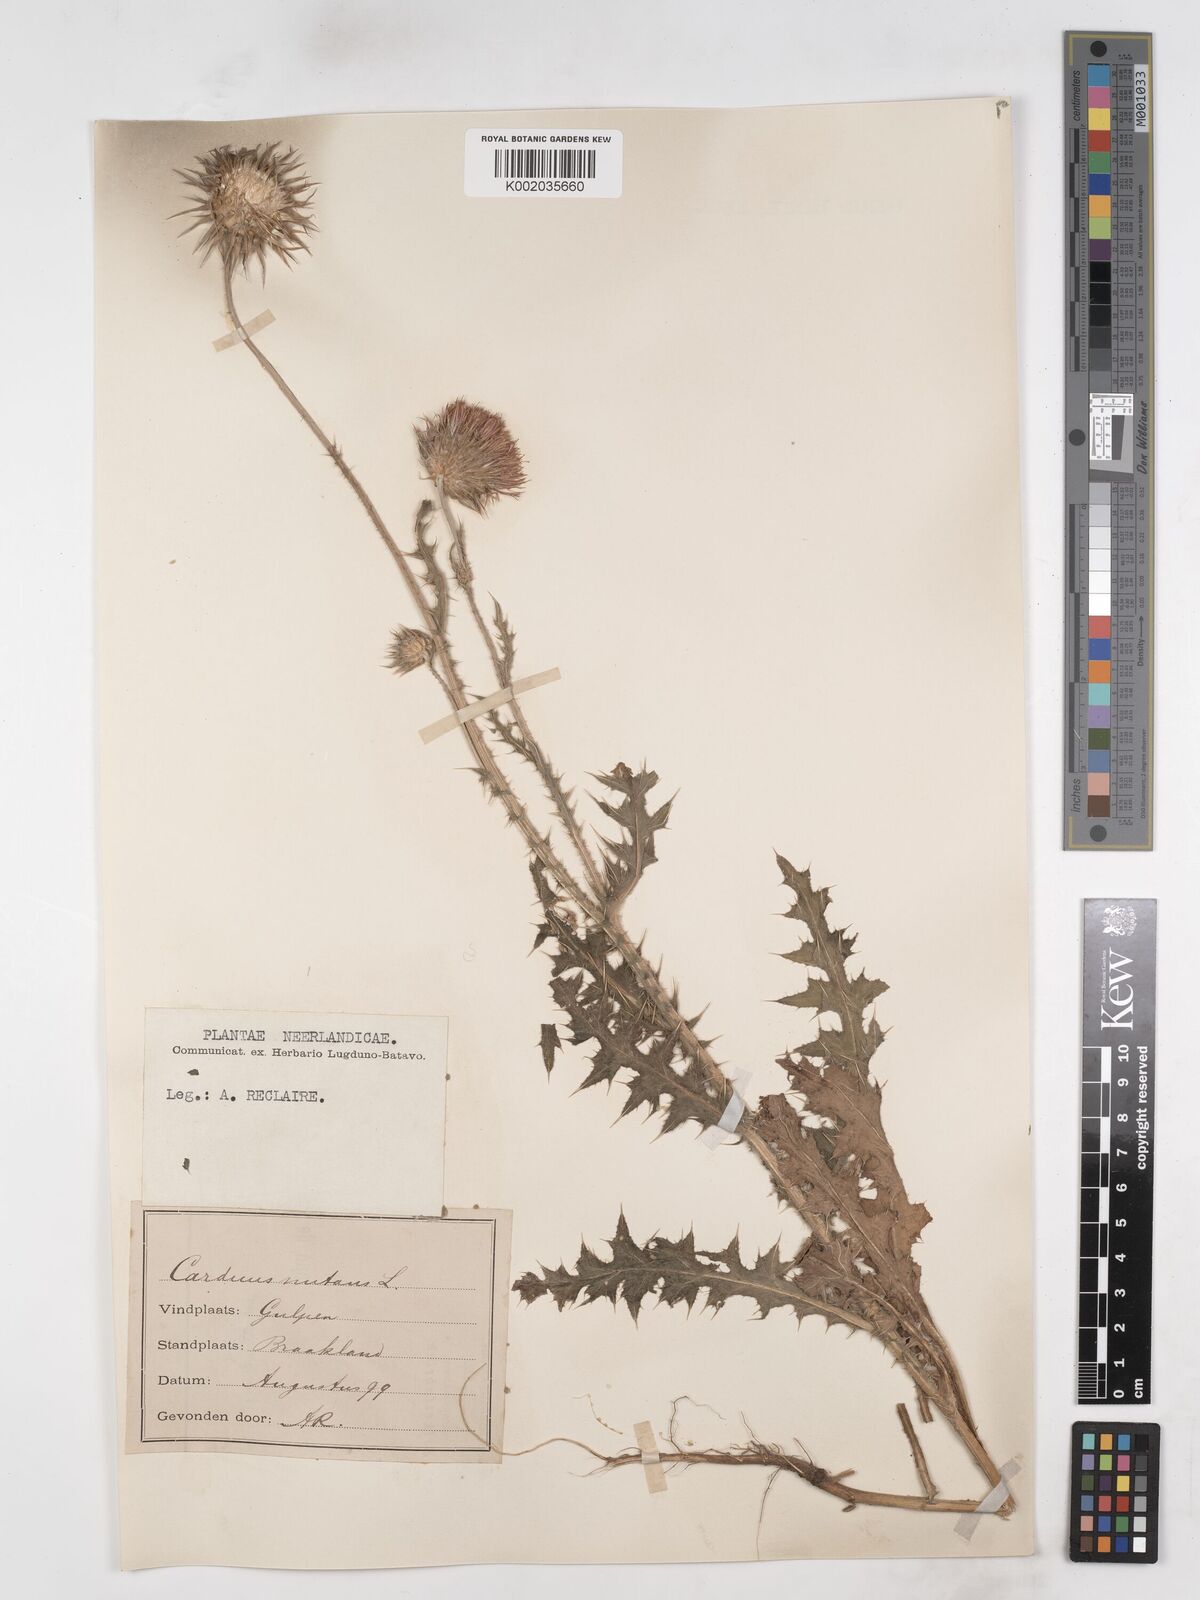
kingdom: Plantae
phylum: Tracheophyta
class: Magnoliopsida
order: Asterales
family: Asteraceae
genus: Carduus
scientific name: Carduus nutans
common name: Musk thistle
